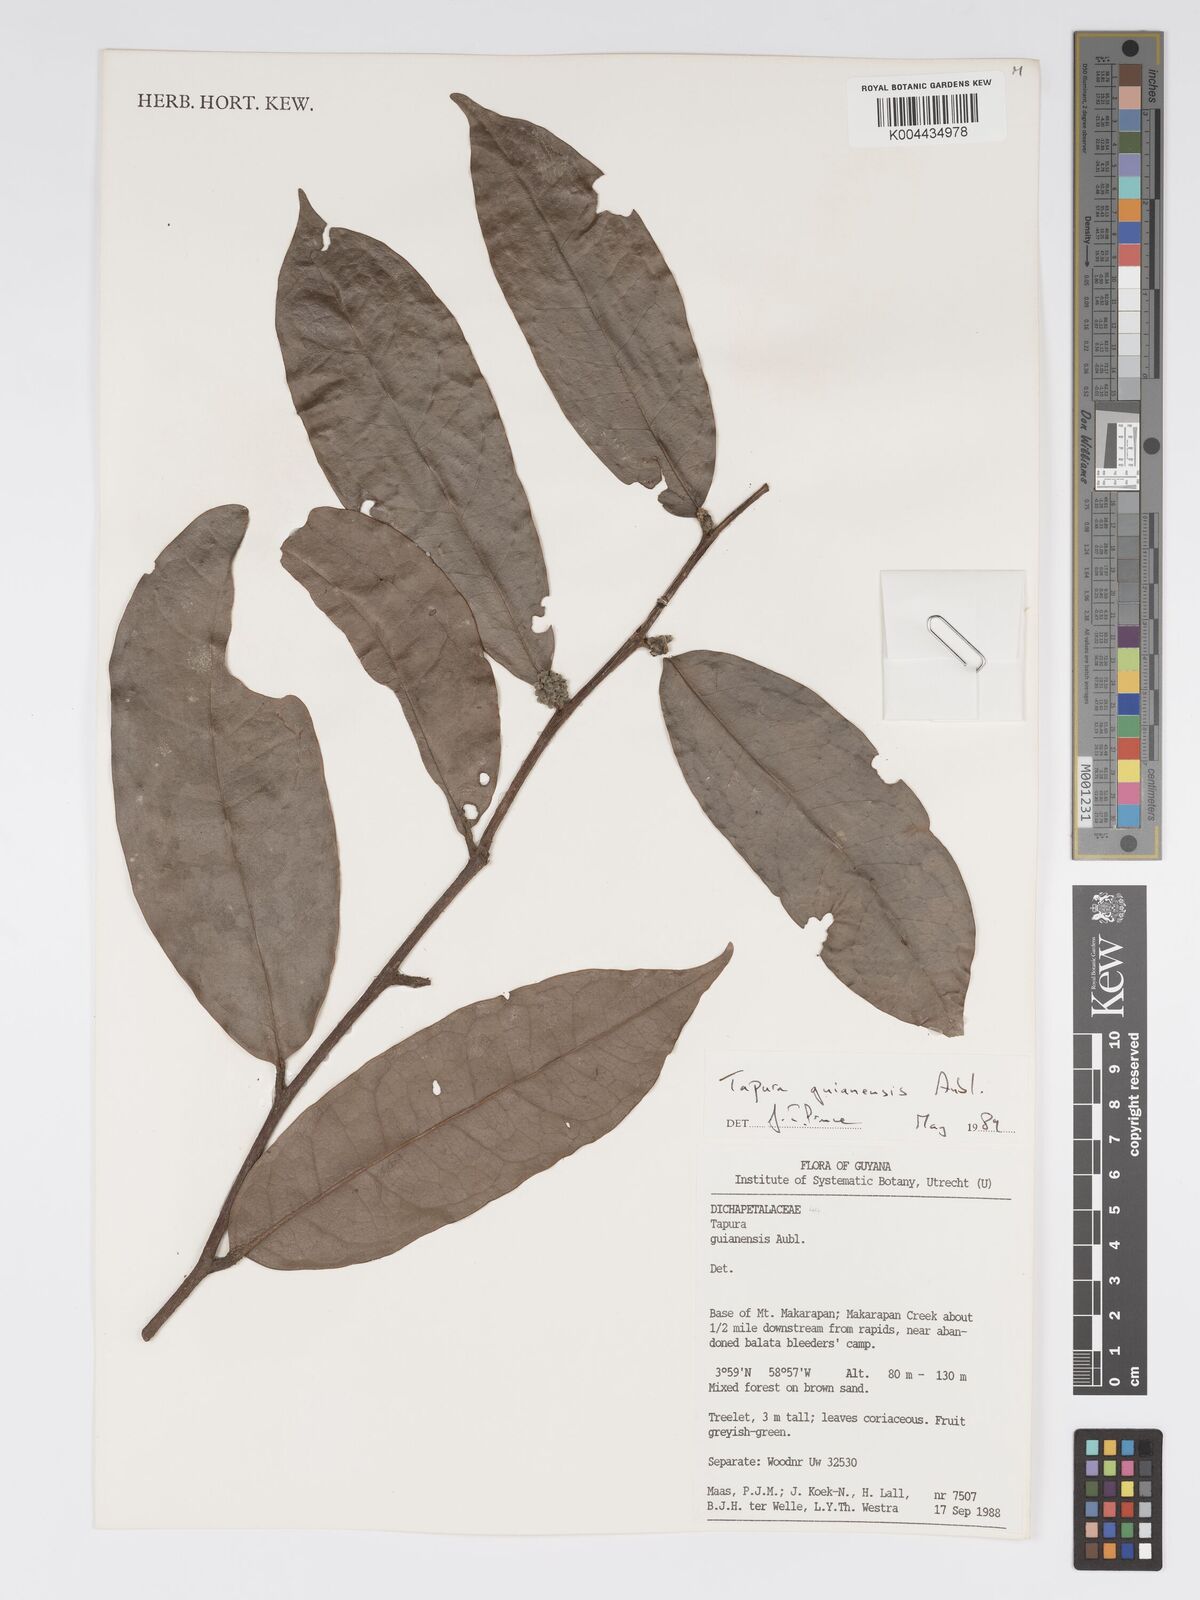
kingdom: Plantae
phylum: Tracheophyta
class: Magnoliopsida
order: Malpighiales
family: Dichapetalaceae
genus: Tapura
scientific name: Tapura guianensis
